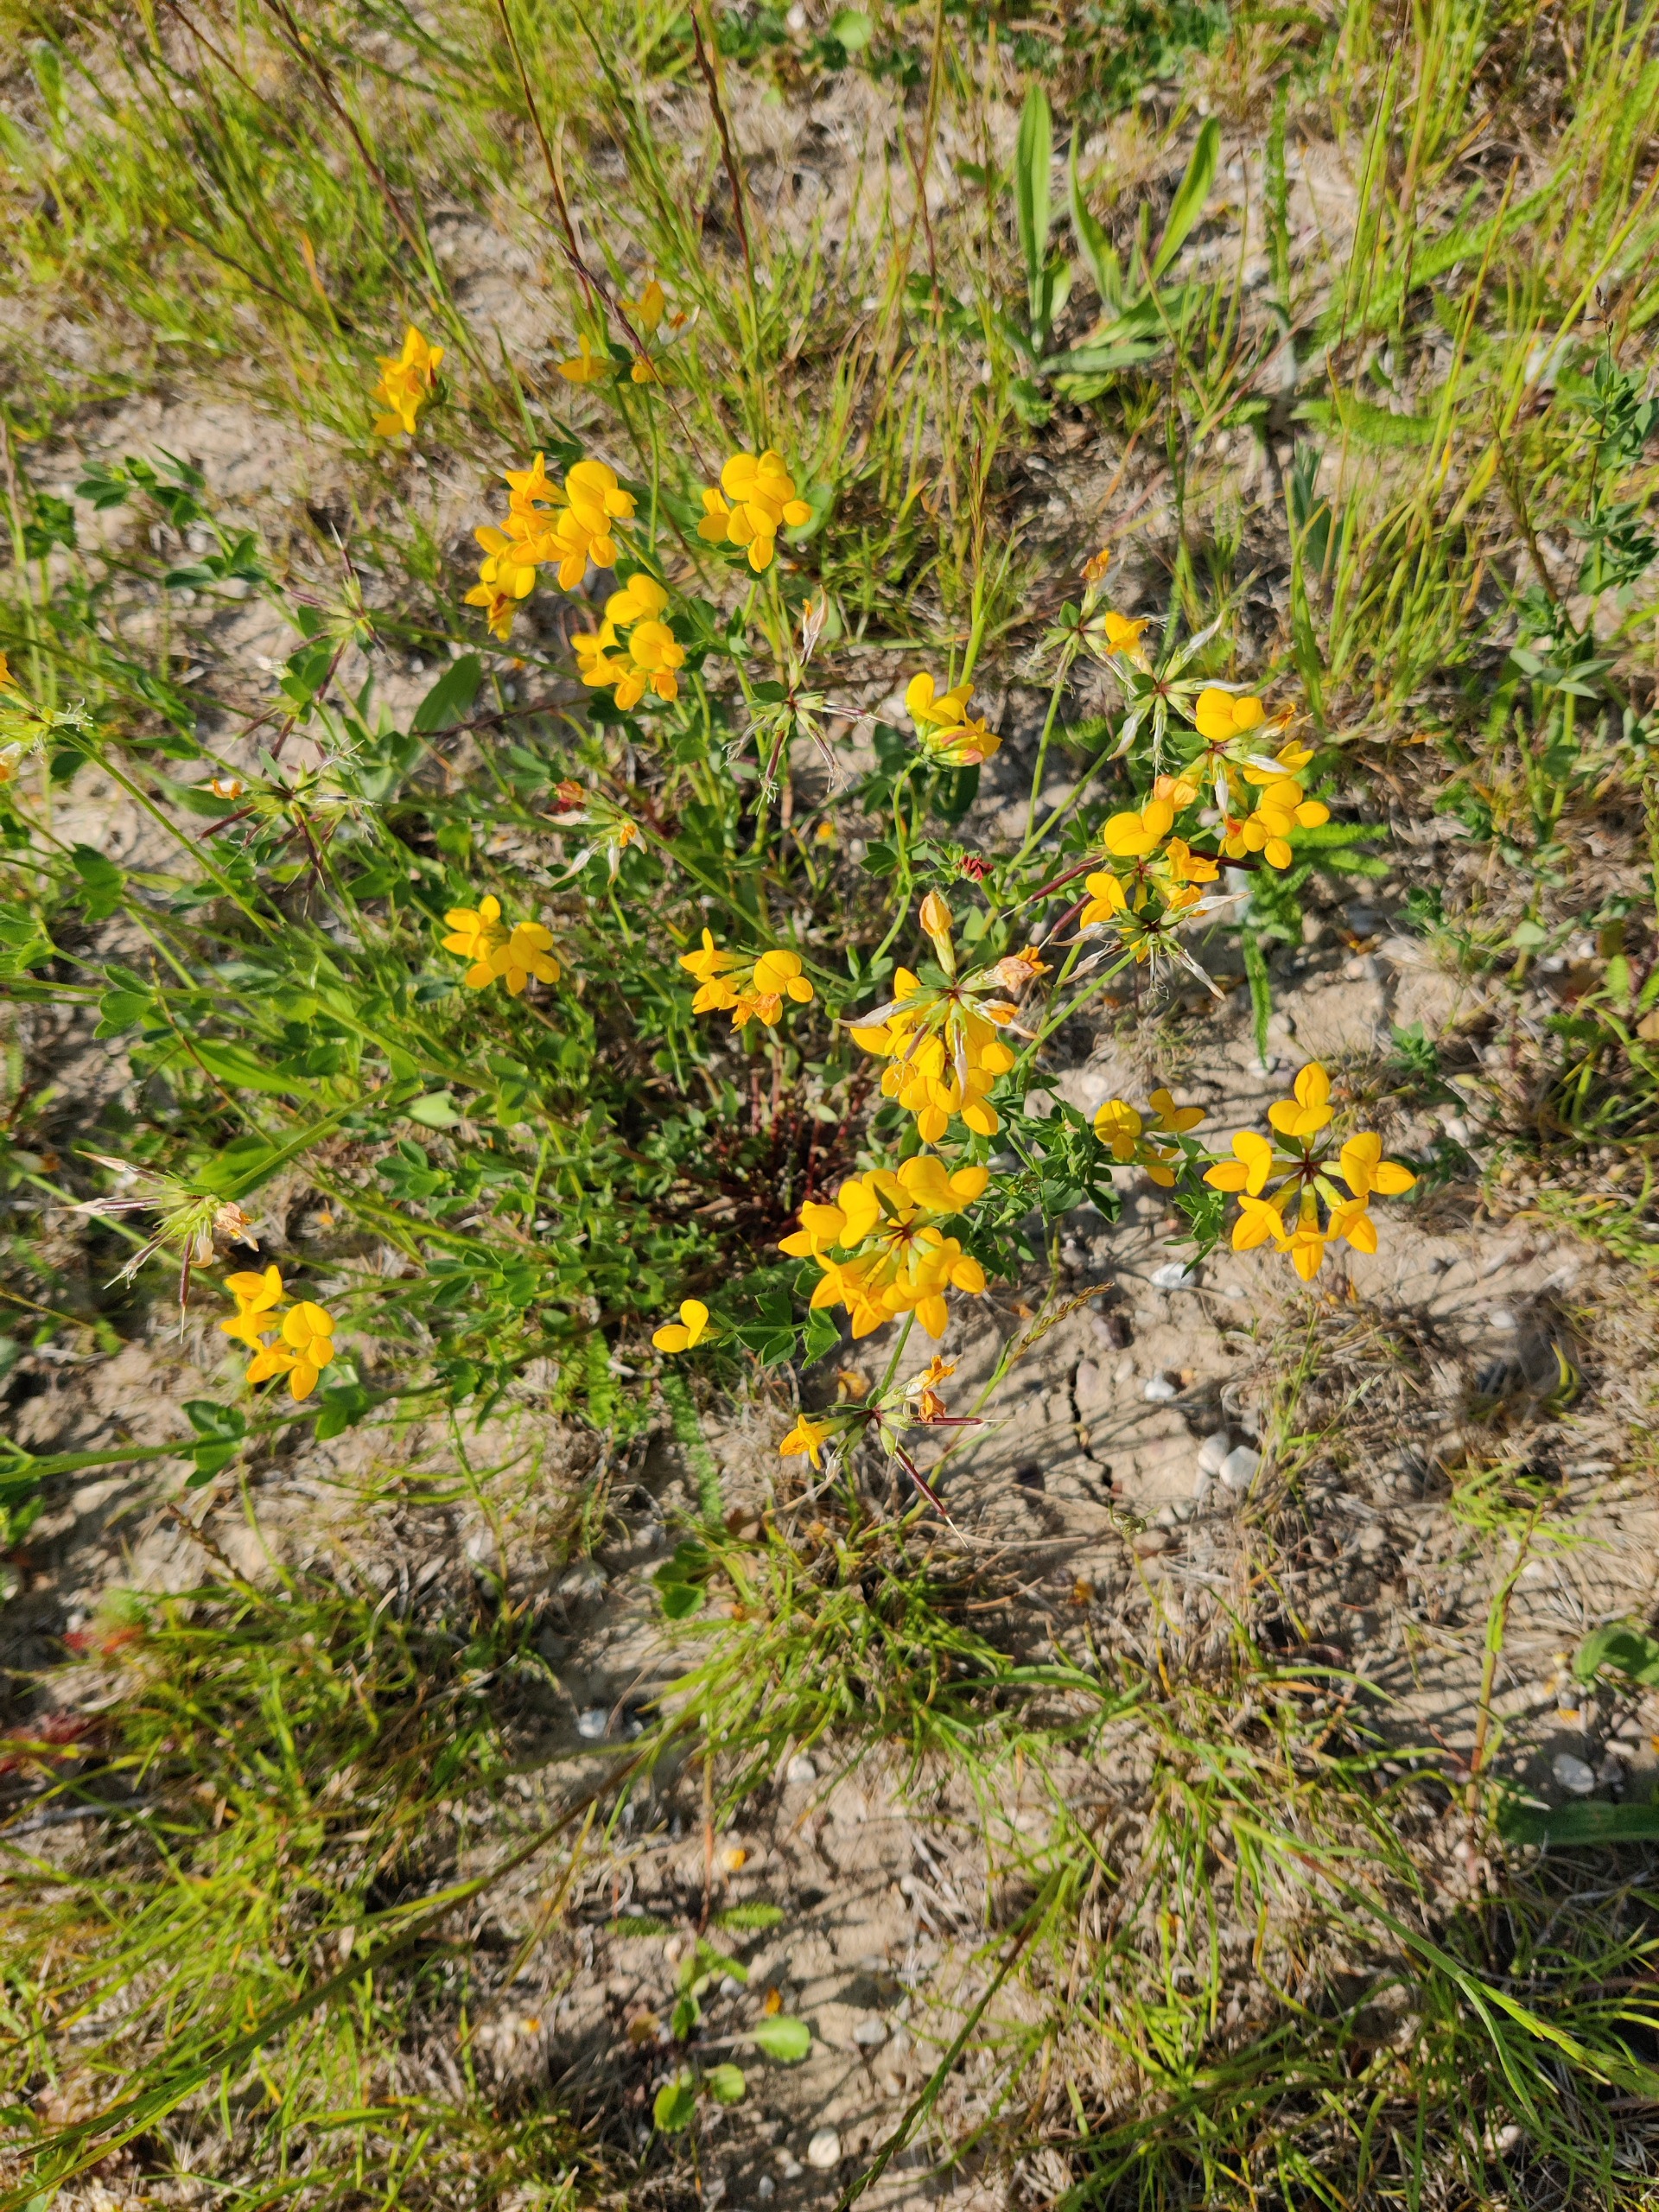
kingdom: Plantae
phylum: Tracheophyta
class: Magnoliopsida
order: Fabales
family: Fabaceae
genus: Lotus
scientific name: Lotus corniculatus
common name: Almindelig kællingetand
